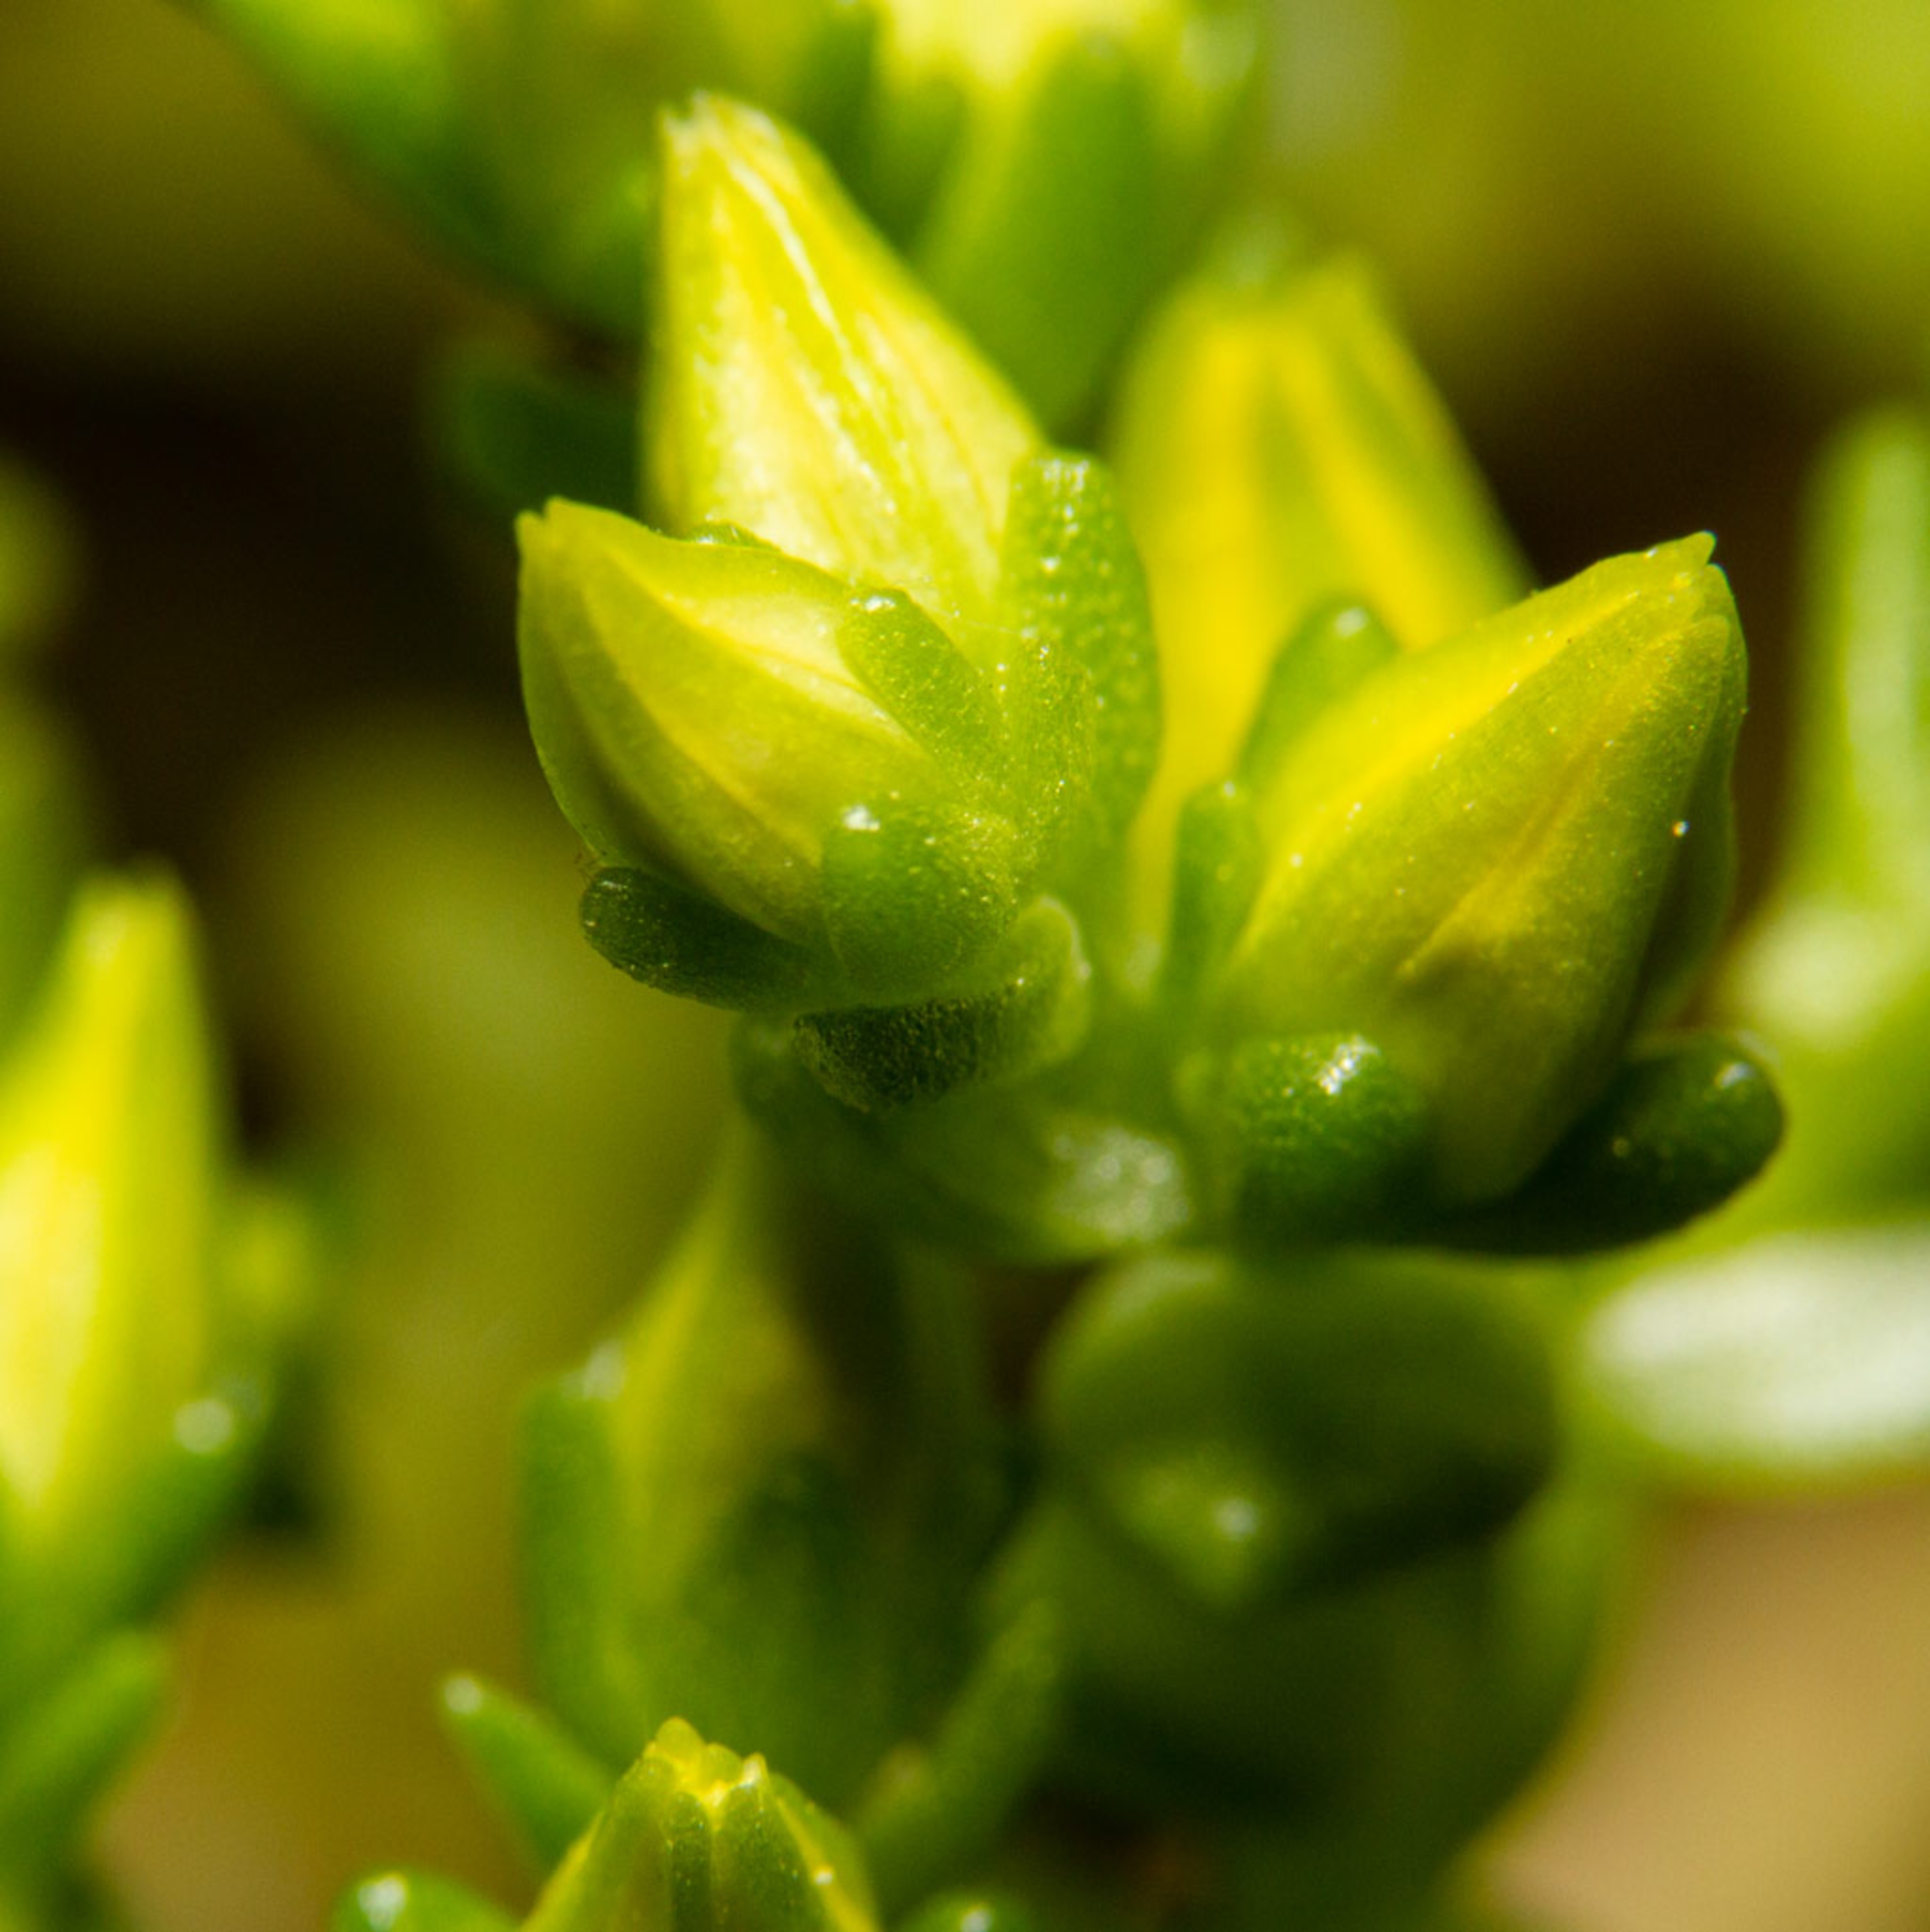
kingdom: Plantae
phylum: Tracheophyta
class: Magnoliopsida
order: Saxifragales
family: Crassulaceae
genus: Sedum
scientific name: Sedum acre
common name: Bidende stenurt
